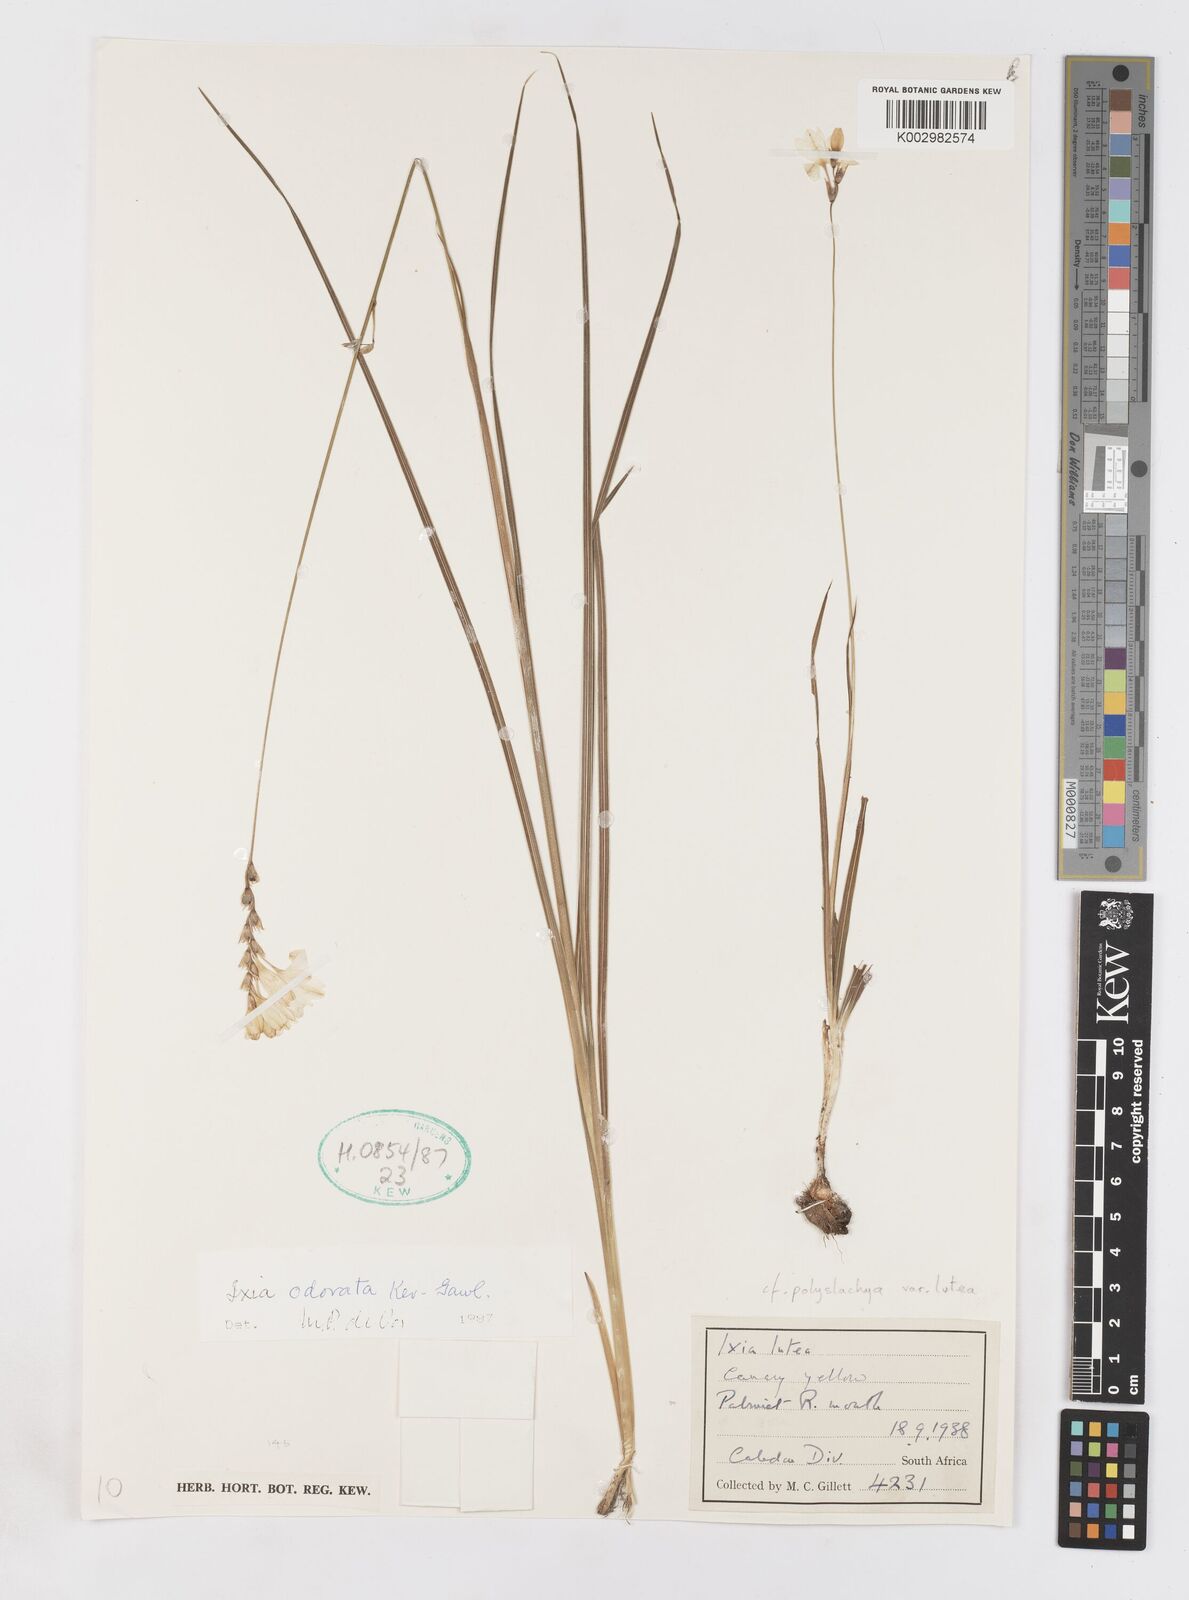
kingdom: Plantae
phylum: Tracheophyta
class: Liliopsida
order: Asparagales
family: Iridaceae
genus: Ixia
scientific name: Ixia odorata
